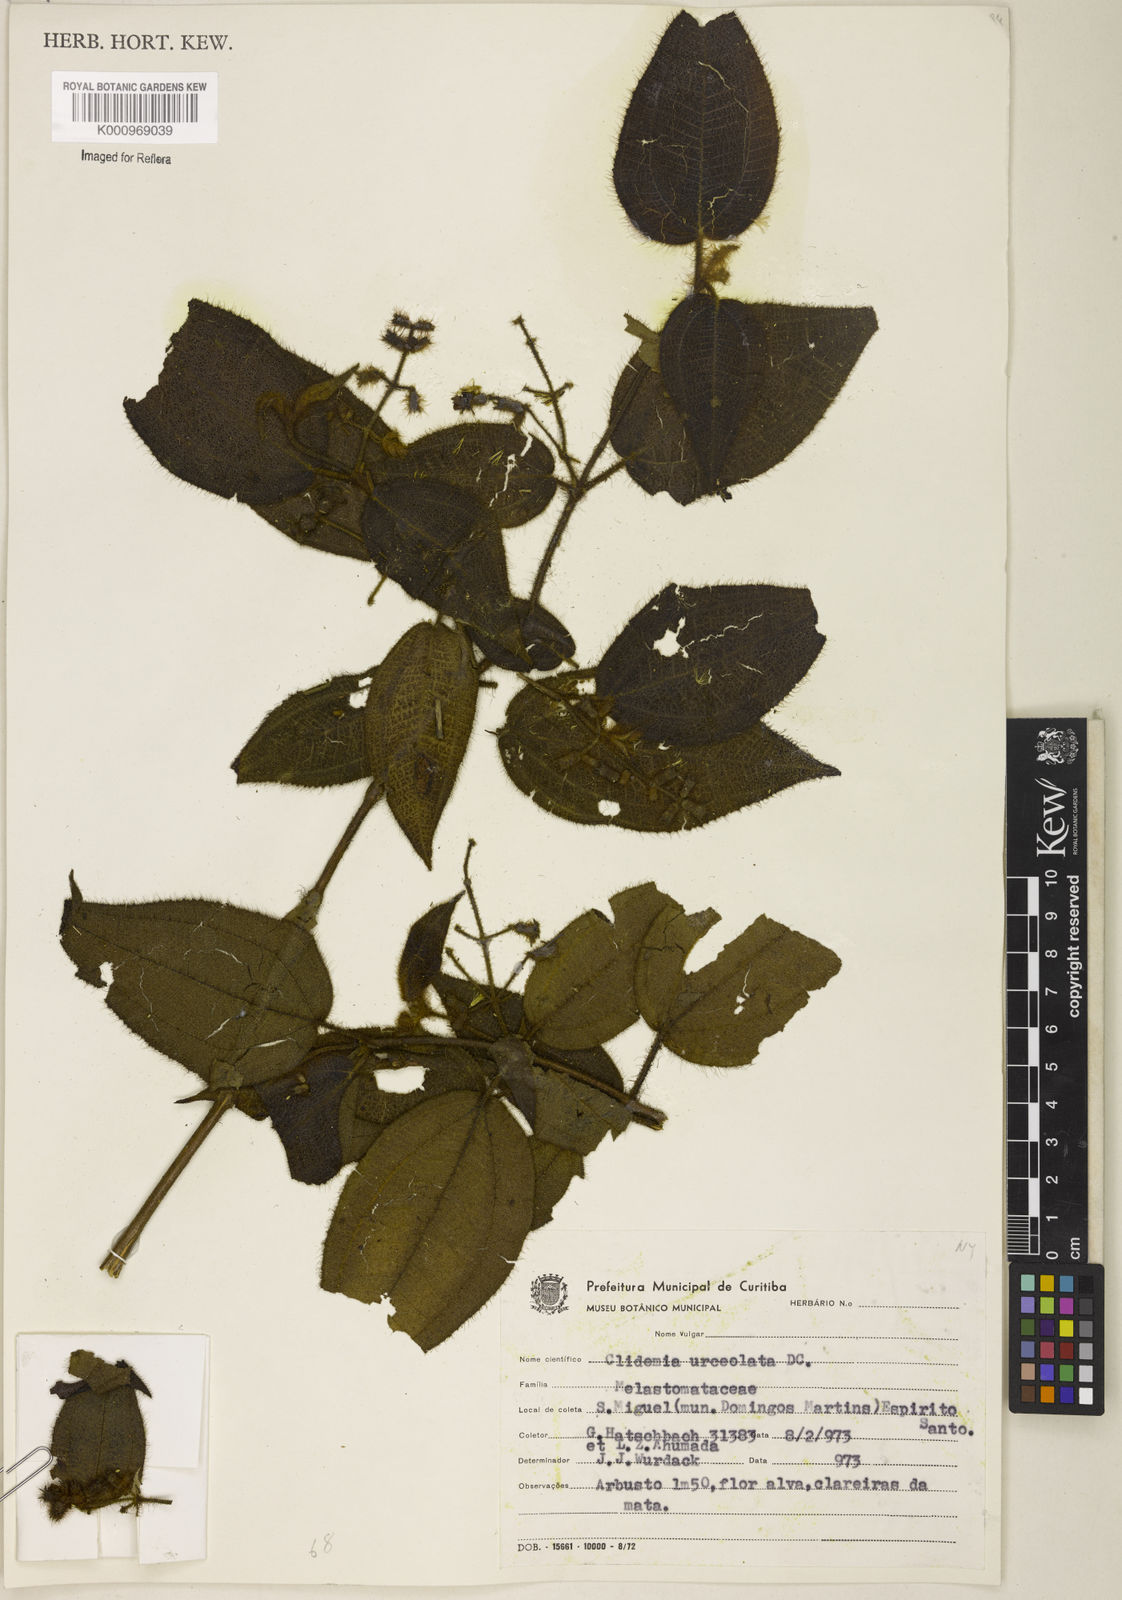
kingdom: Plantae
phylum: Tracheophyta
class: Magnoliopsida
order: Myrtales
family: Melastomataceae
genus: Miconia
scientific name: Miconia neourceolata
